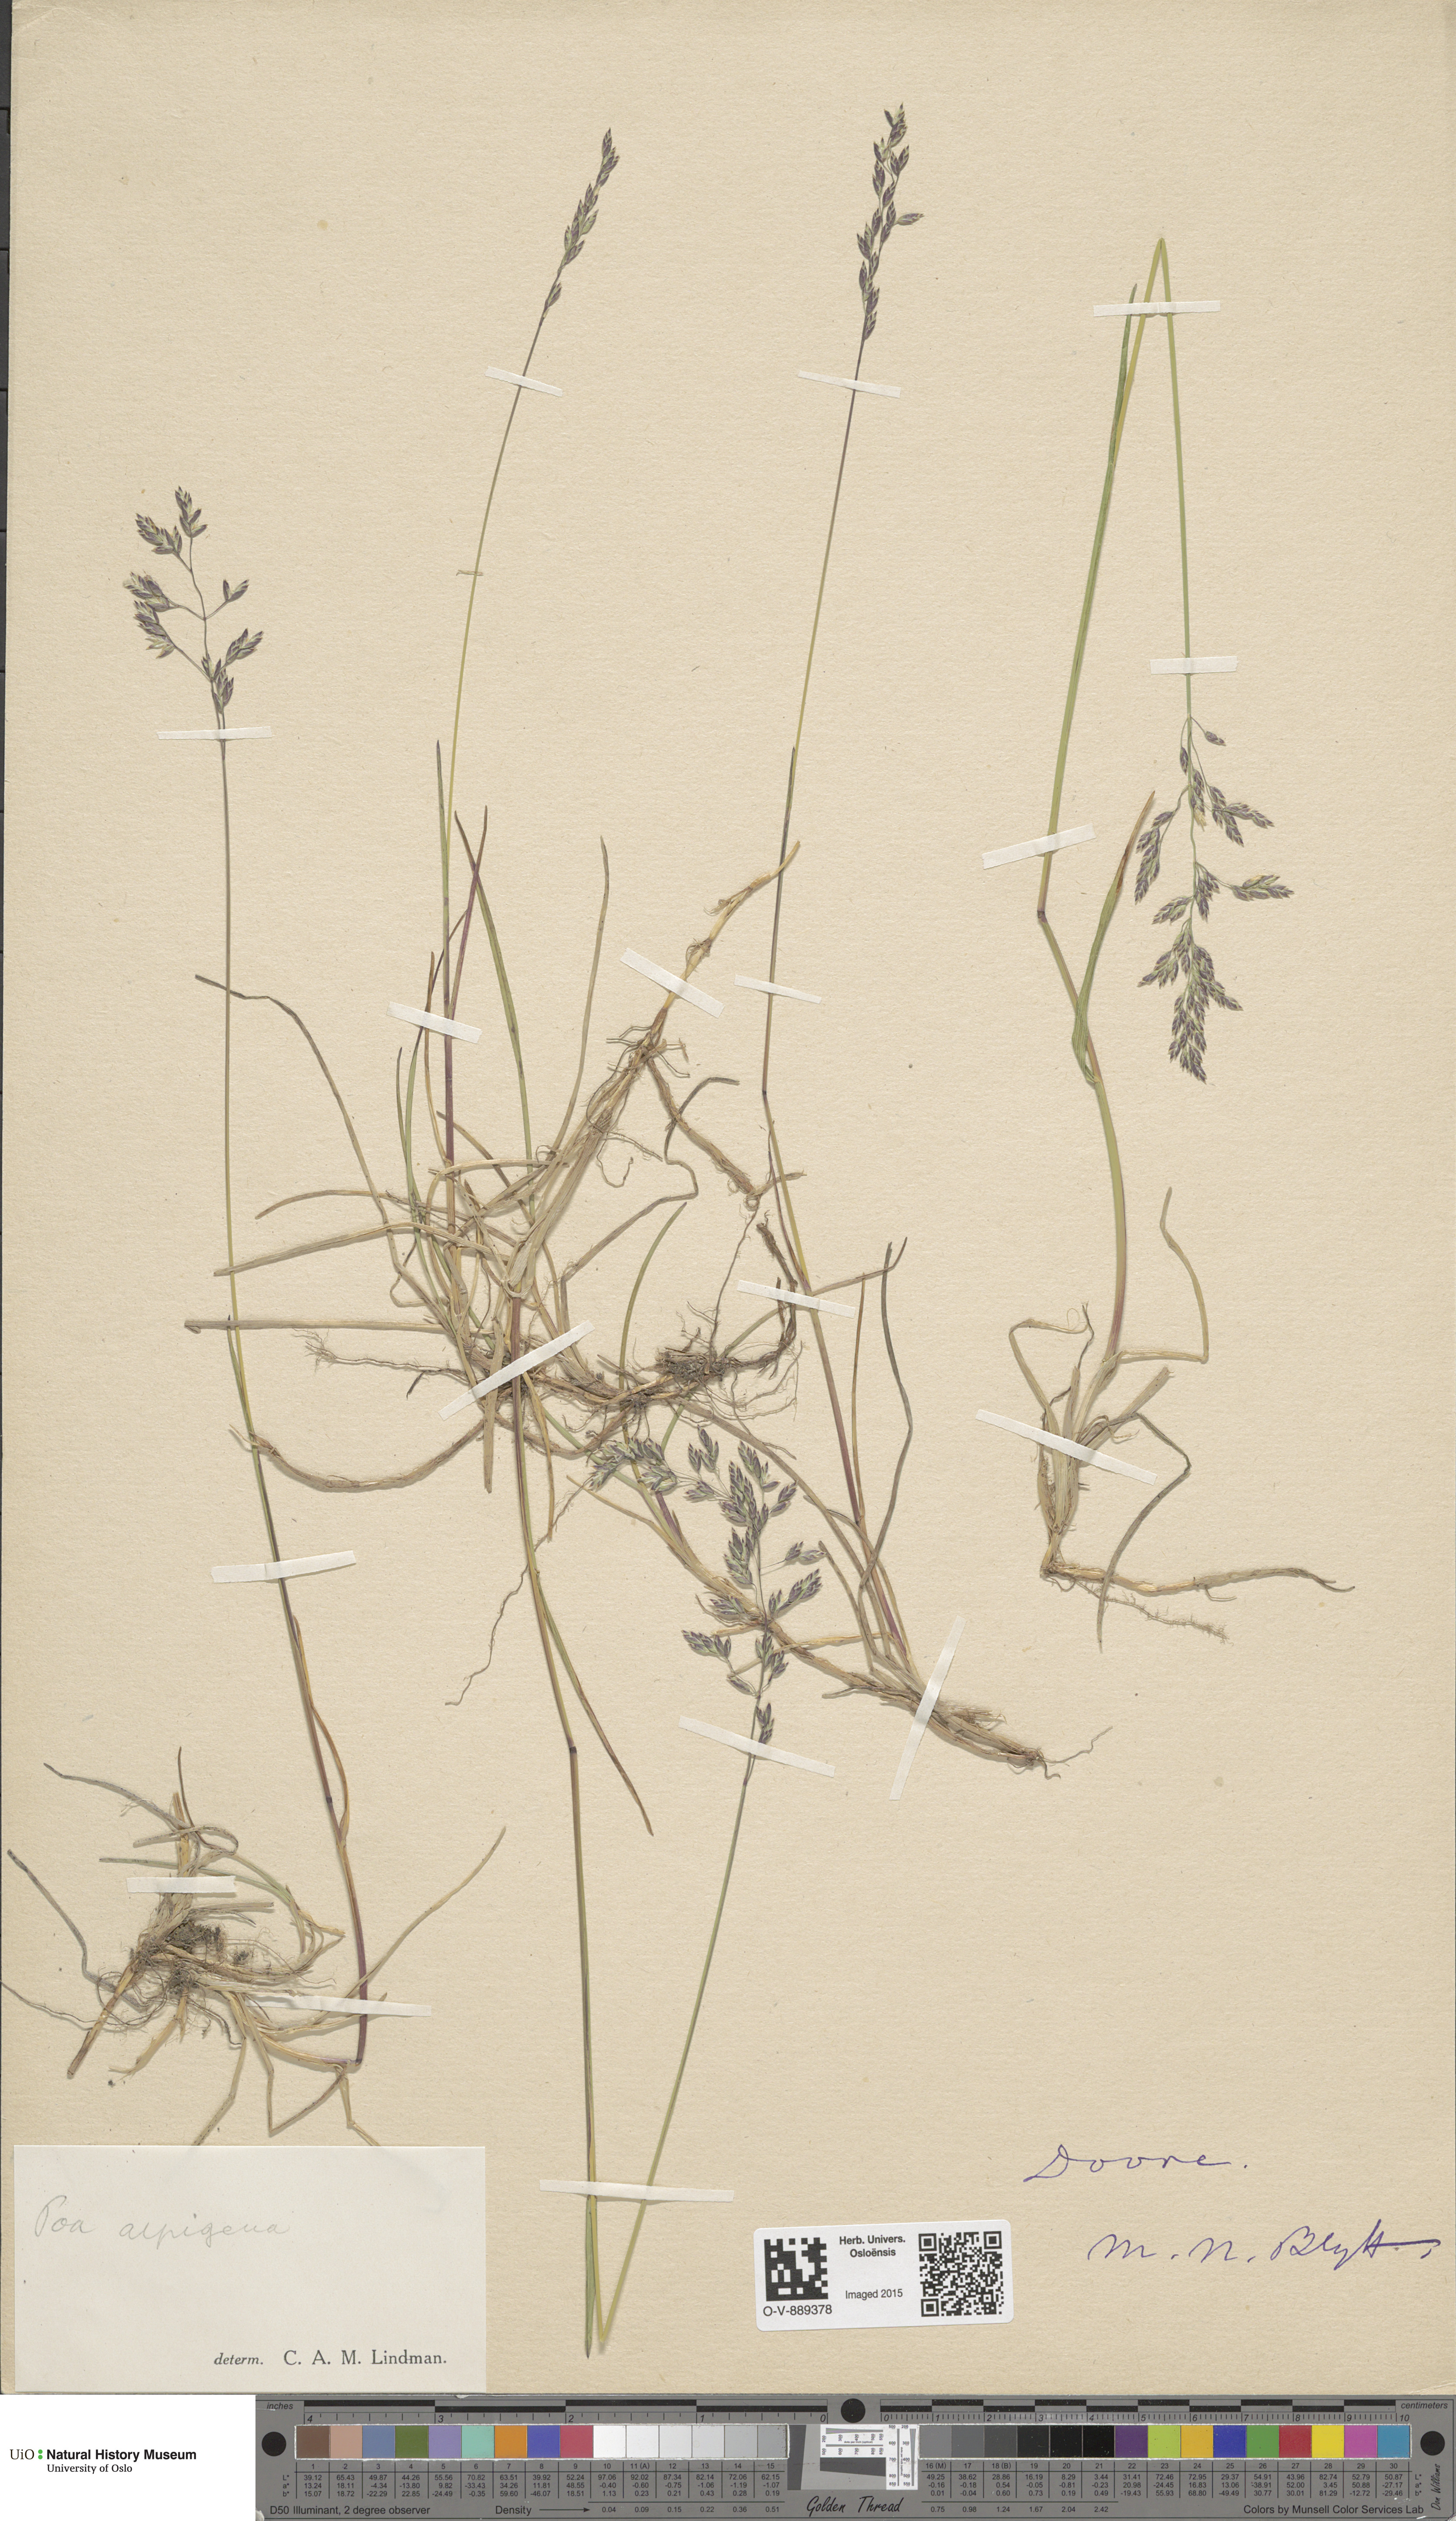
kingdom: Plantae
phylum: Tracheophyta
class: Liliopsida
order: Poales
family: Poaceae
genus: Poa
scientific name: Poa alpigena
